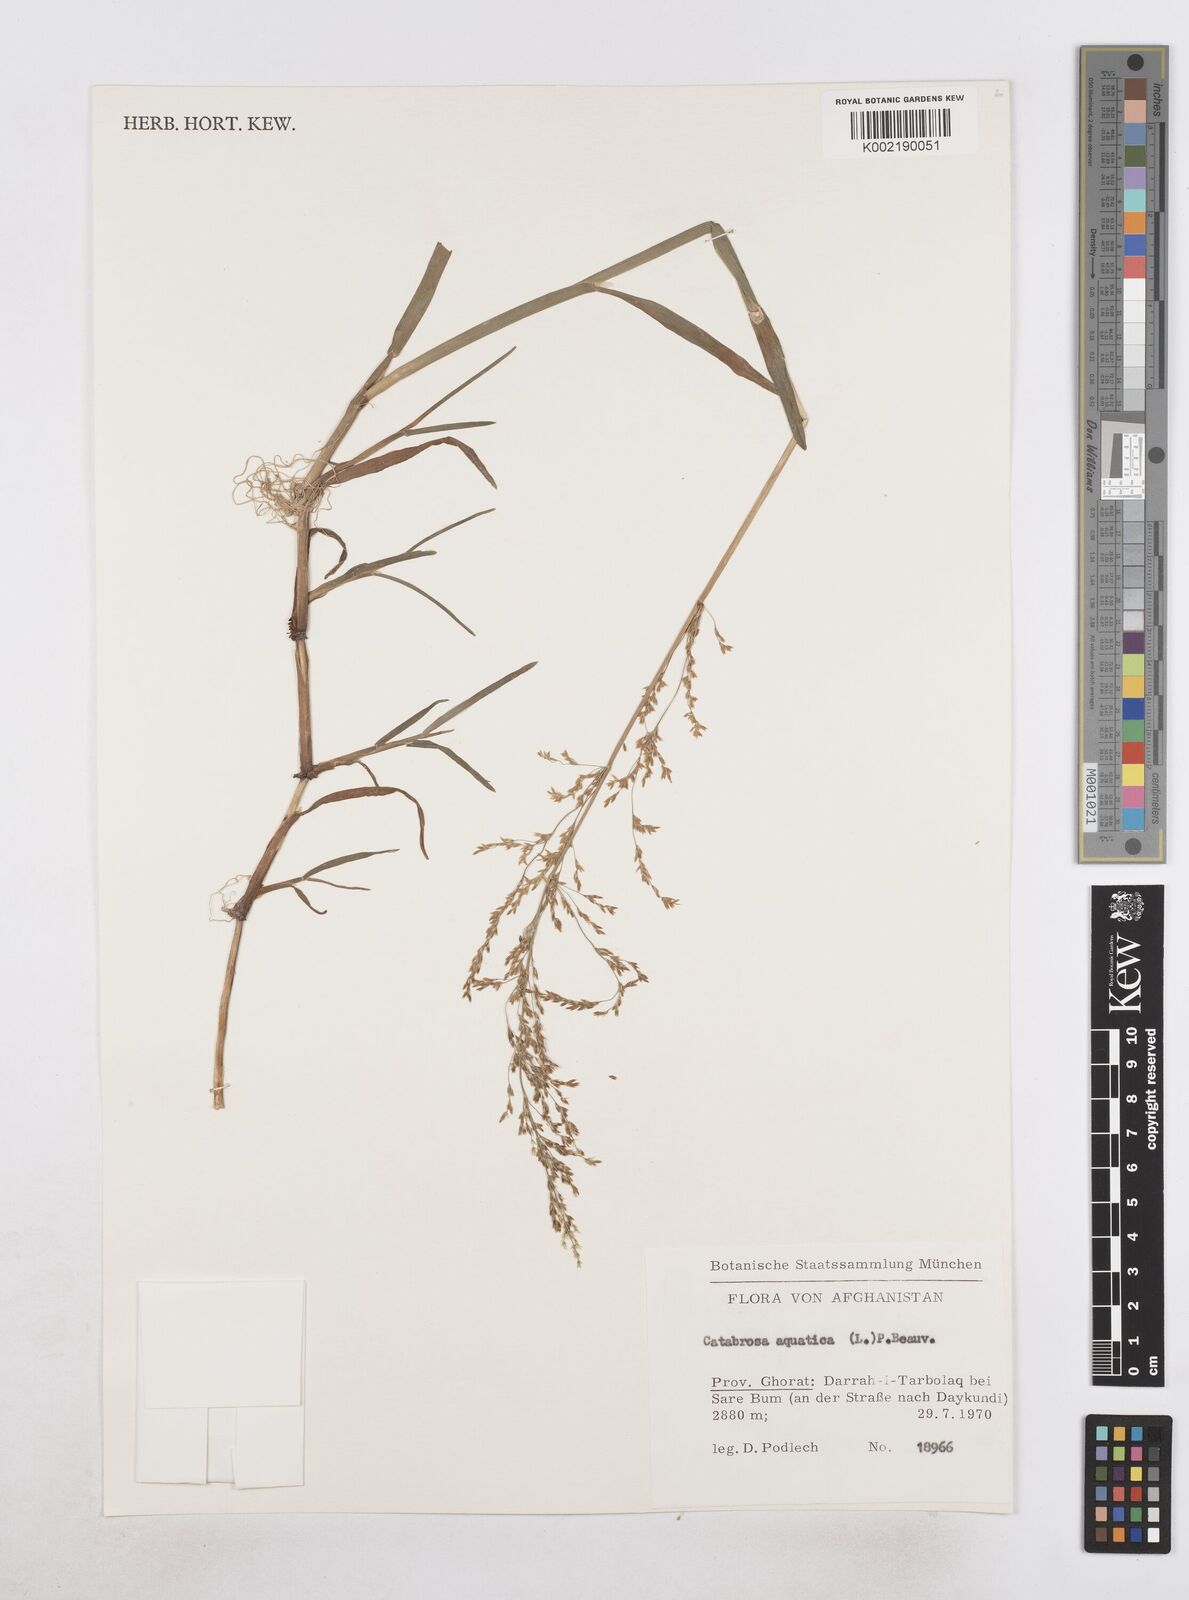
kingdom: Plantae
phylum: Tracheophyta
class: Liliopsida
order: Poales
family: Poaceae
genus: Catabrosa
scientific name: Catabrosa aquatica
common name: Whorl-grass
